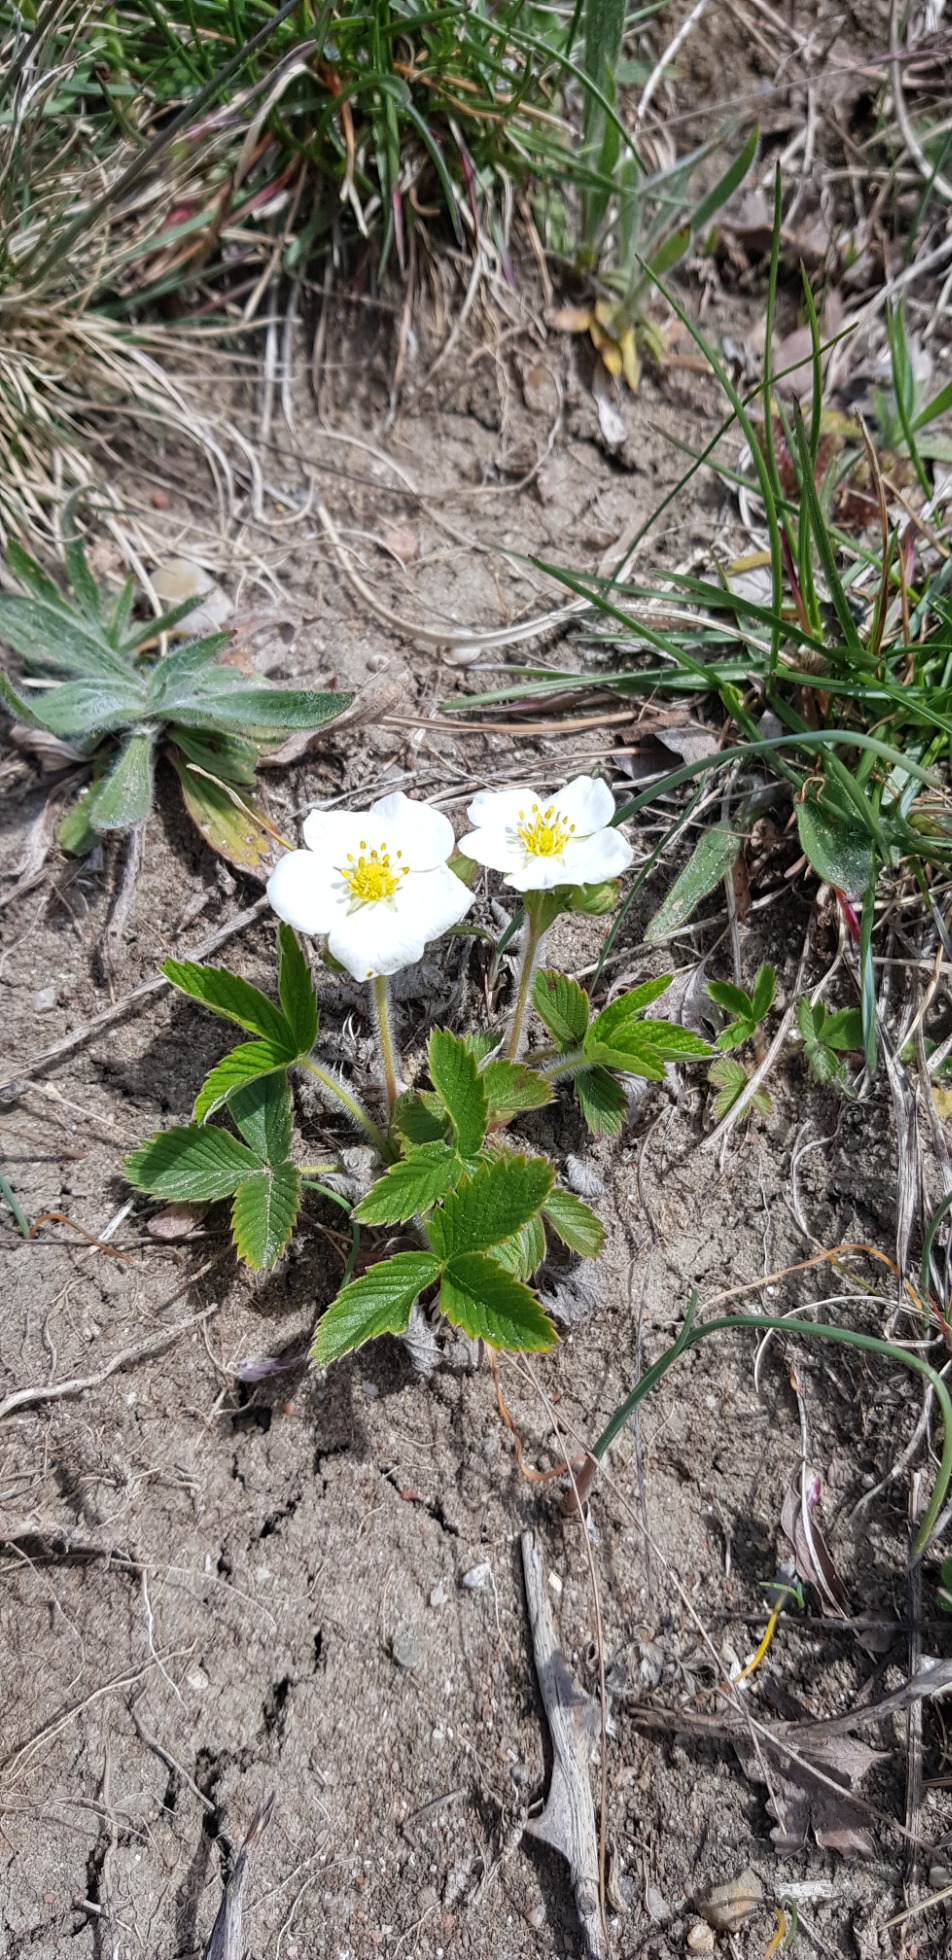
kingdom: Plantae
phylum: Tracheophyta
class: Magnoliopsida
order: Rosales
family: Rosaceae
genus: Fragaria
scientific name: Fragaria viridis
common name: Bakke-jordbær
